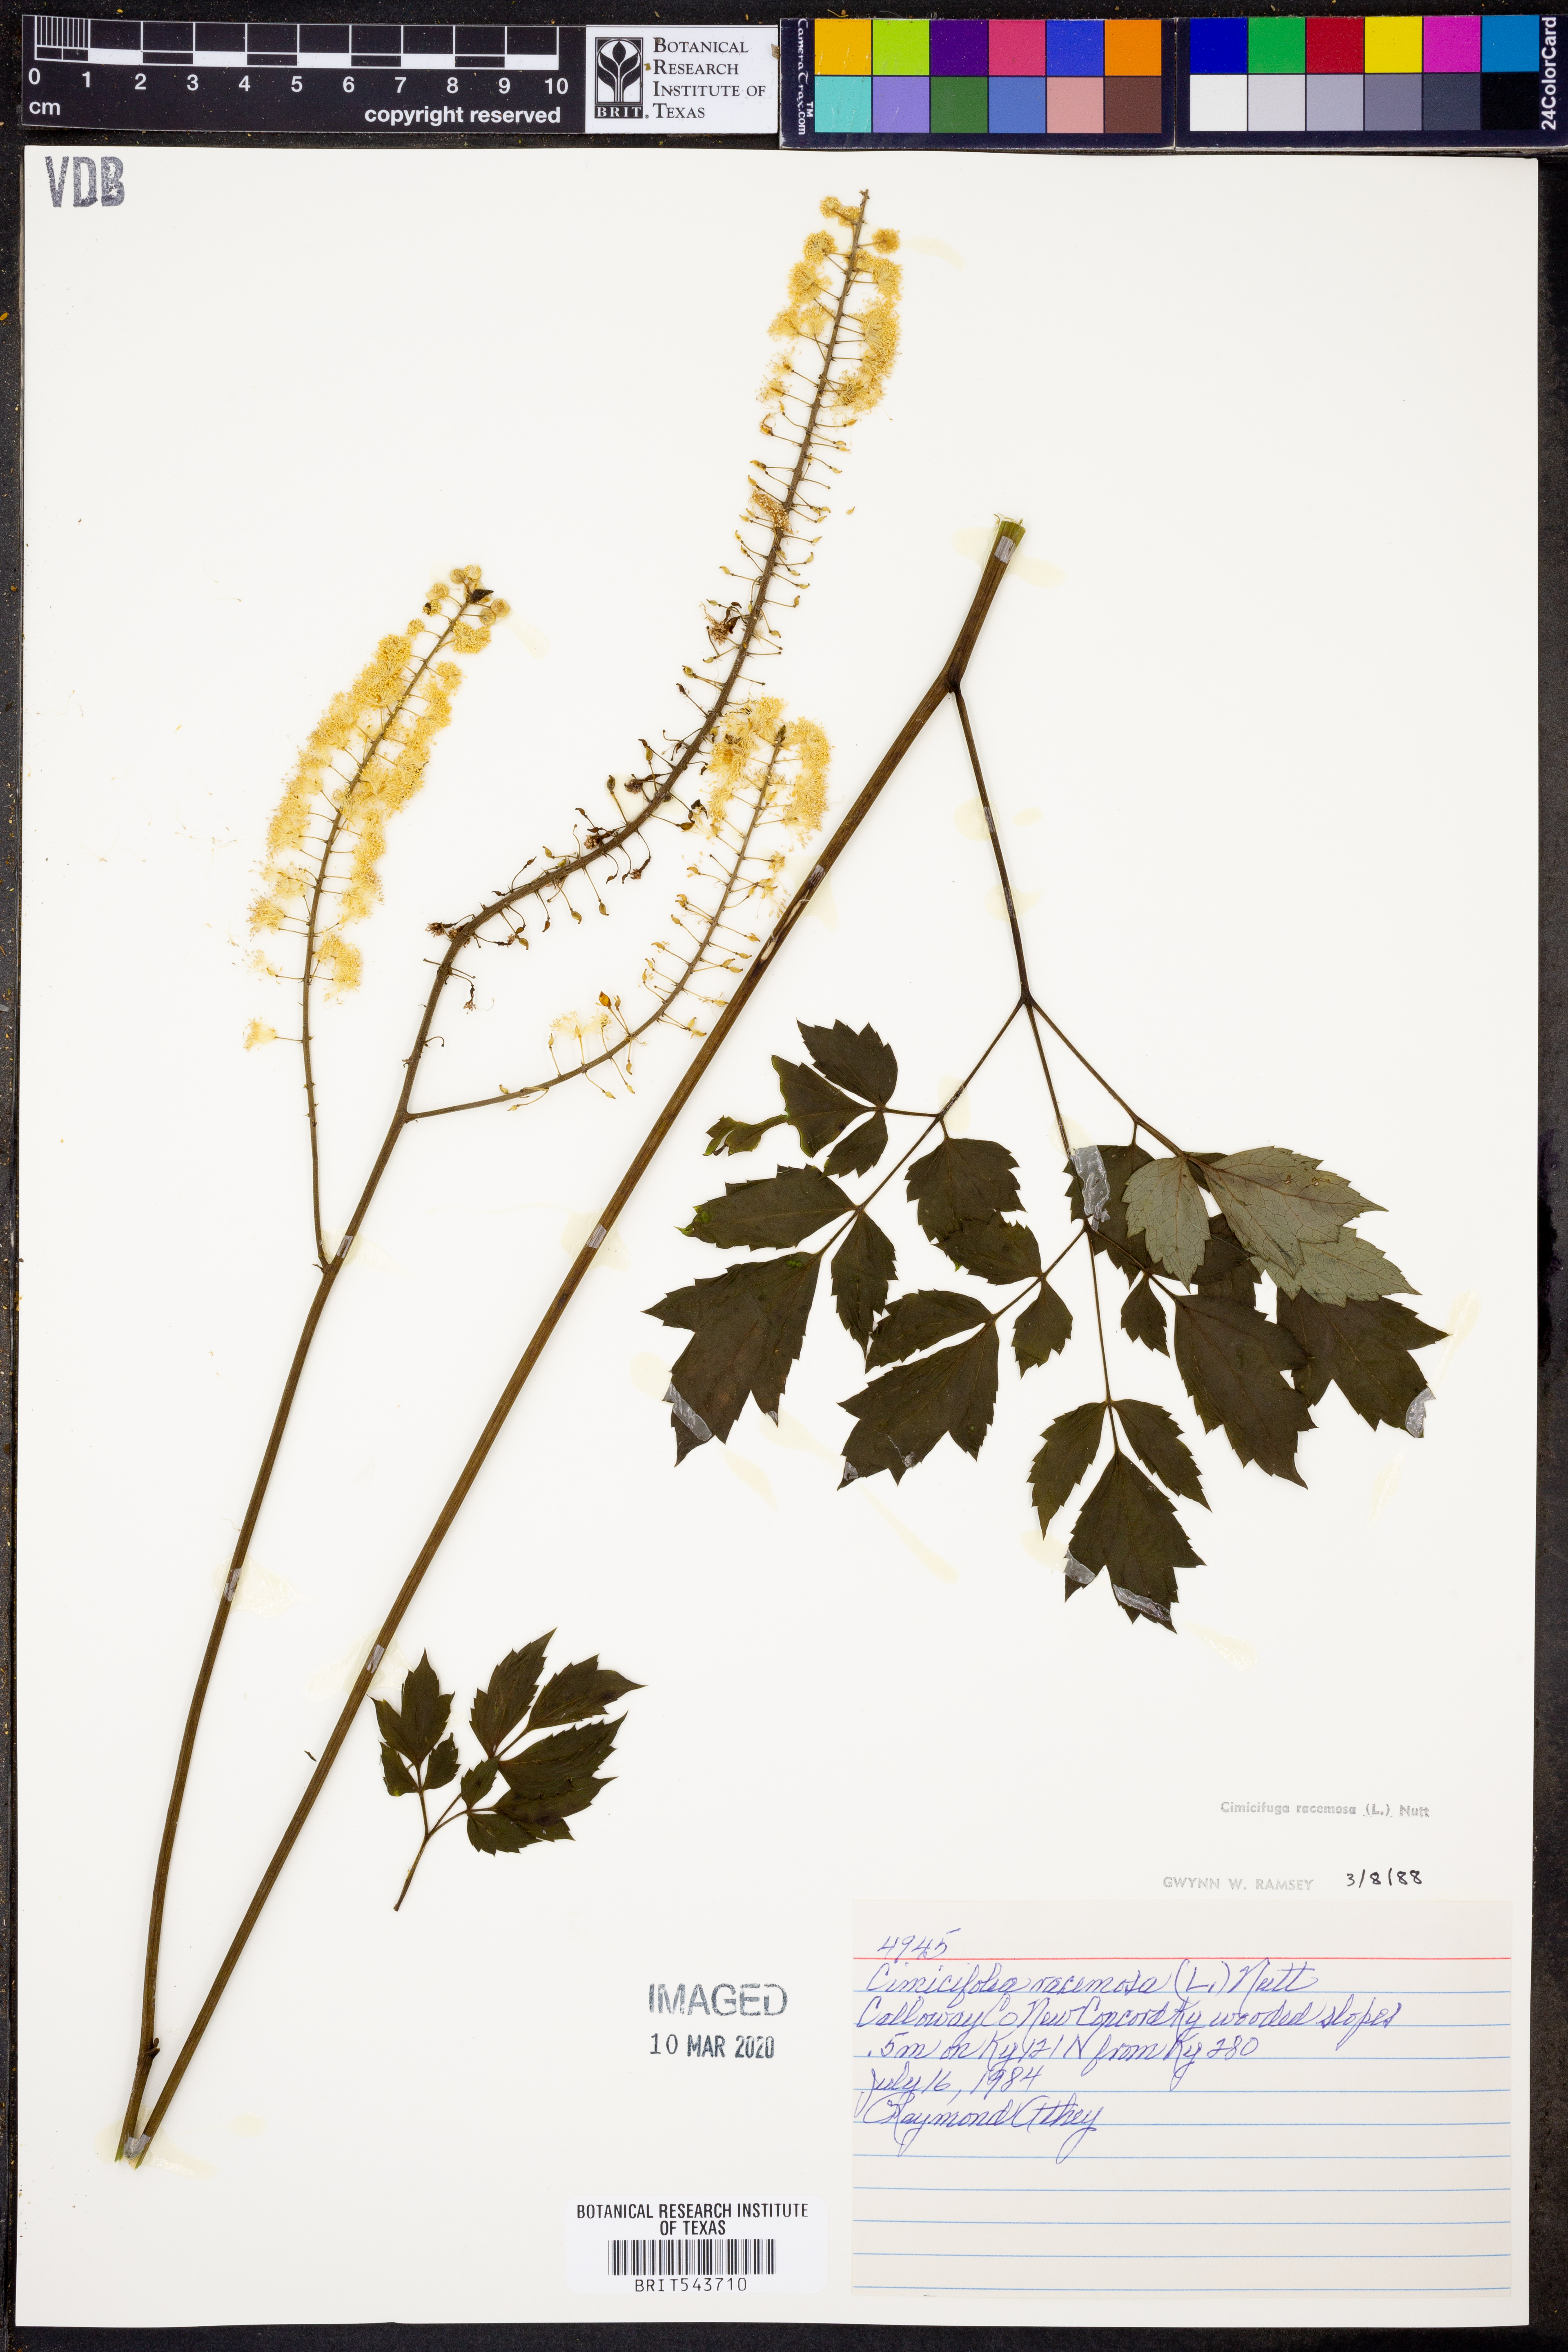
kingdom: Plantae
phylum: Tracheophyta
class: Magnoliopsida
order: Ranunculales
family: Ranunculaceae
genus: Actaea
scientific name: Actaea racemosa
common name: Black cohosh
